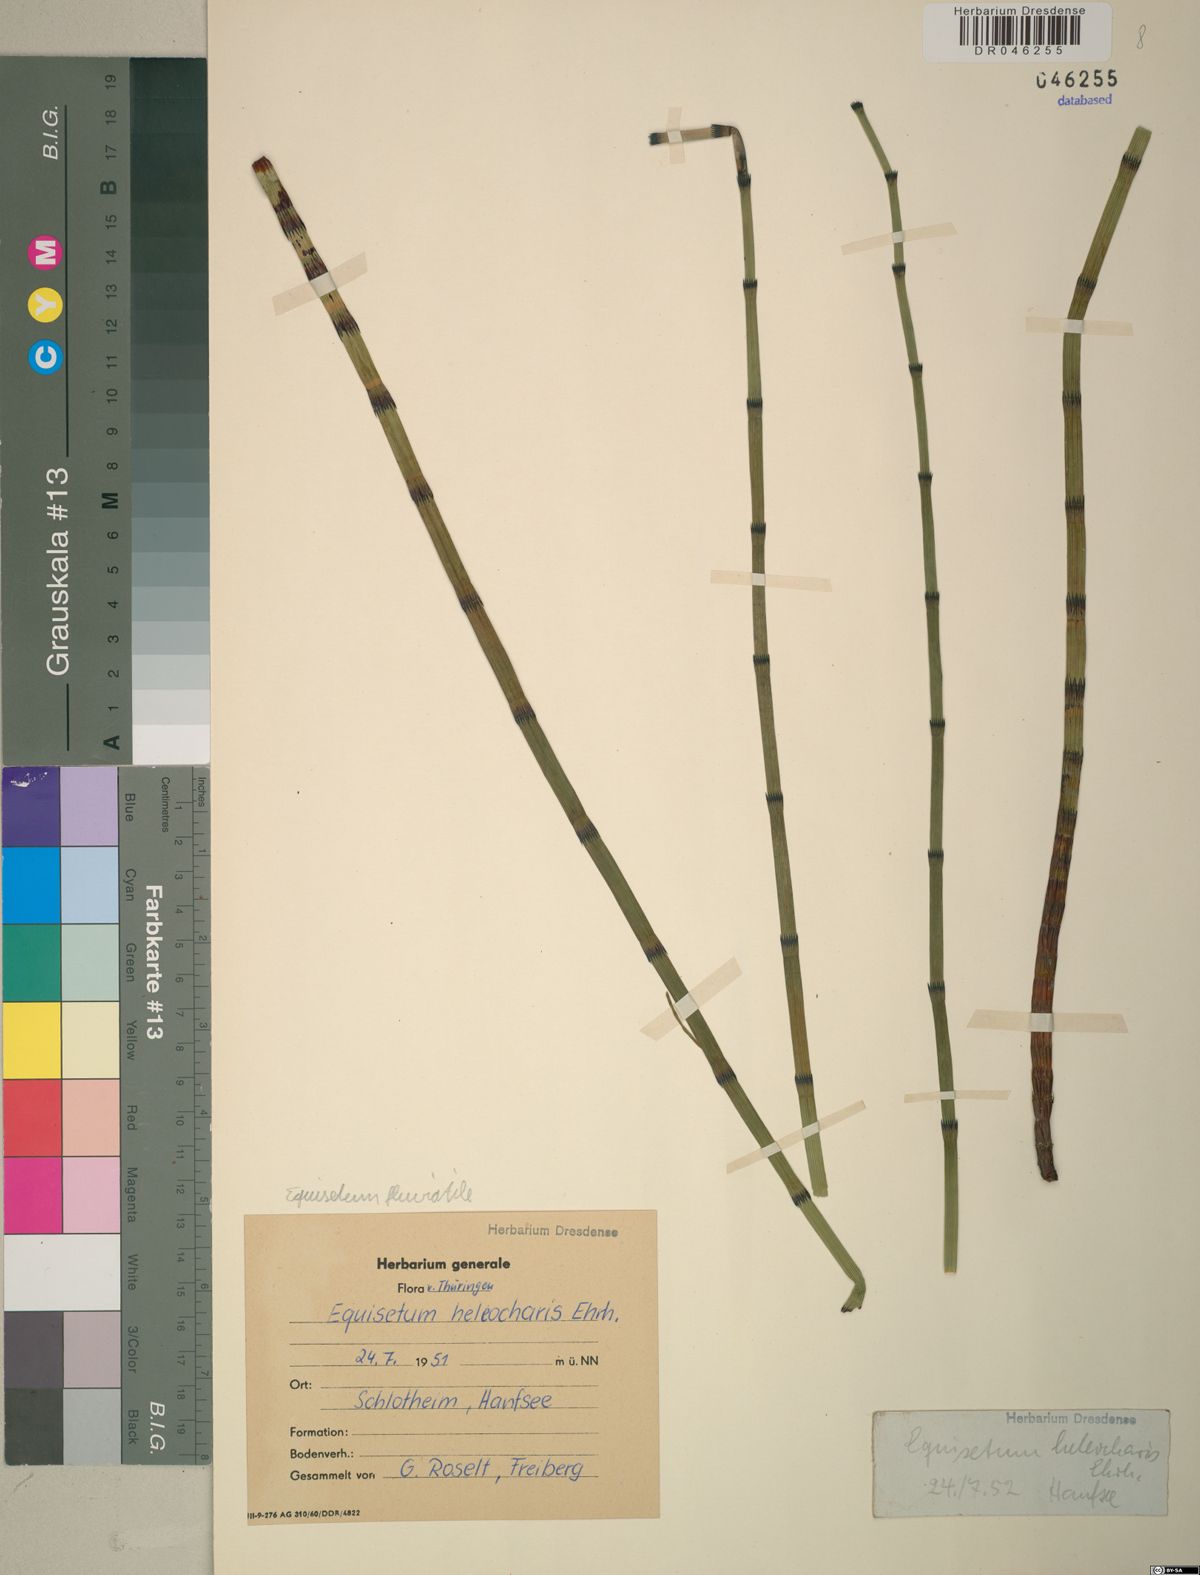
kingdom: Plantae
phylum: Tracheophyta
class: Polypodiopsida
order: Equisetales
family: Equisetaceae
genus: Equisetum
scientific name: Equisetum fluviatile
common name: Water horsetail
